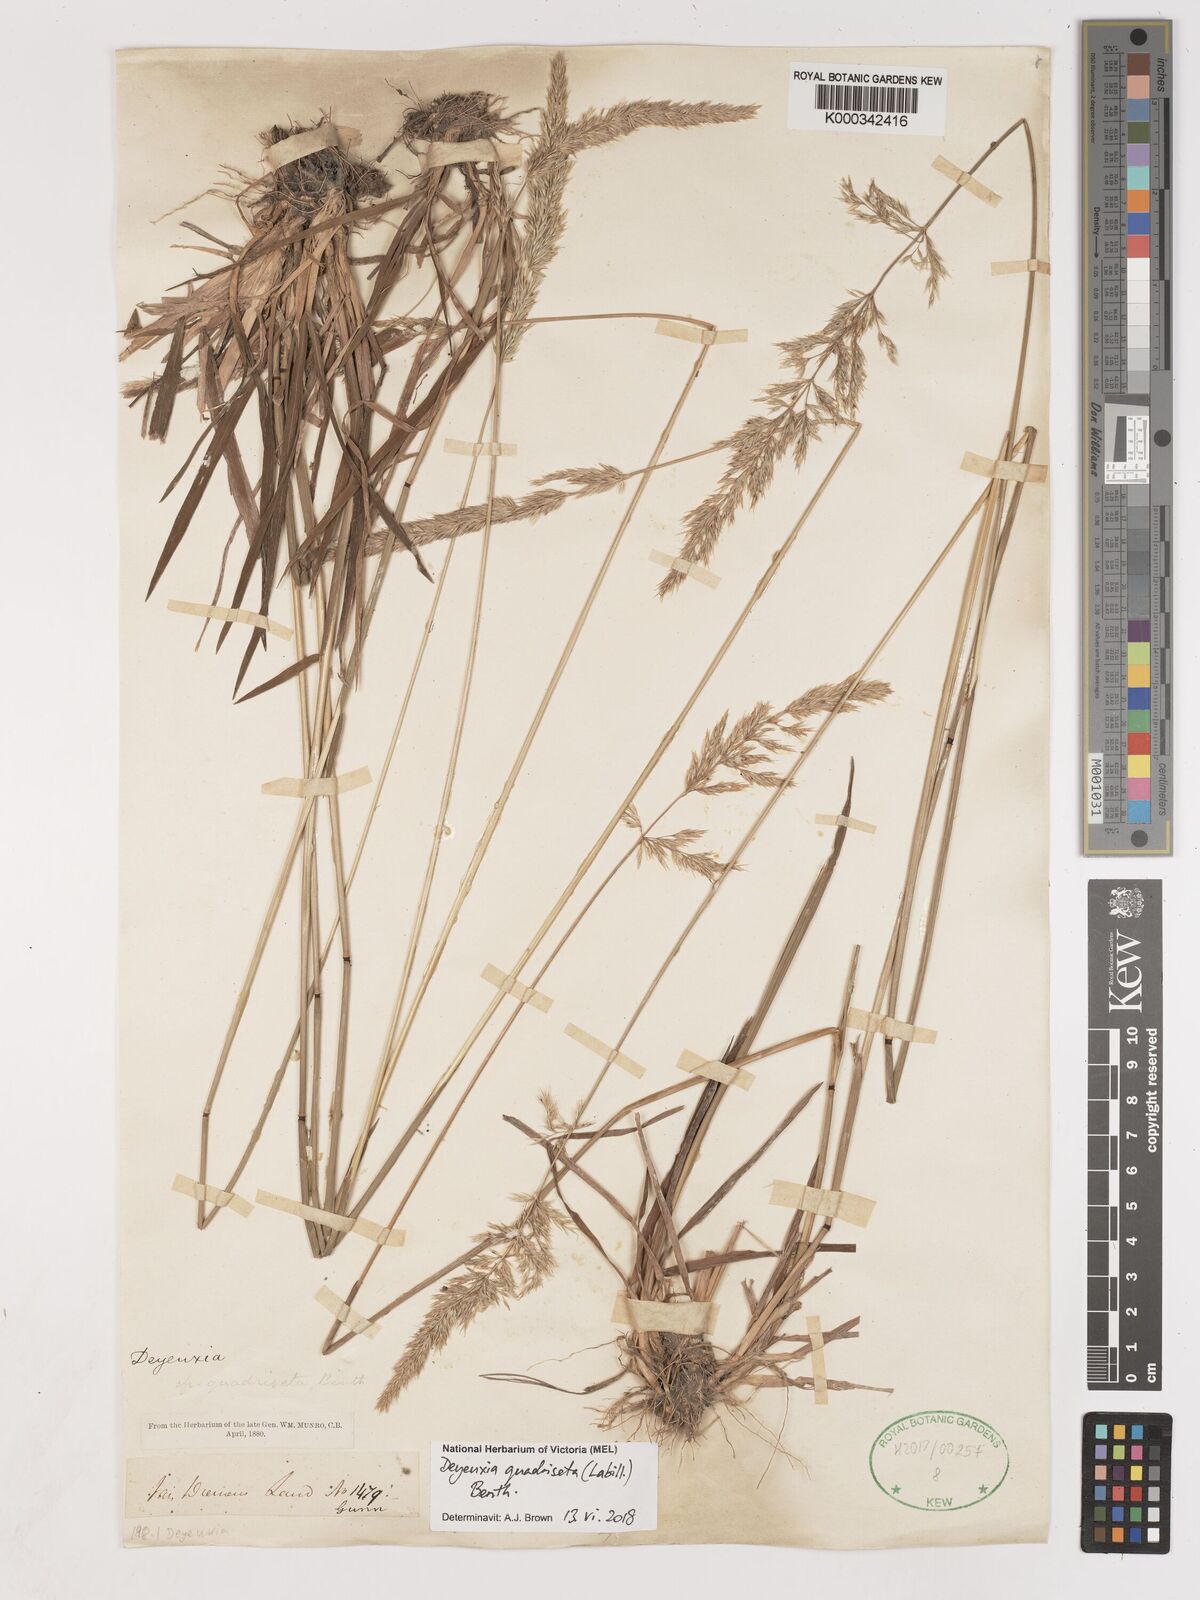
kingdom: Plantae
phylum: Tracheophyta
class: Liliopsida
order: Poales
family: Poaceae
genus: Calamagrostis
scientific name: Calamagrostis quadriseta
